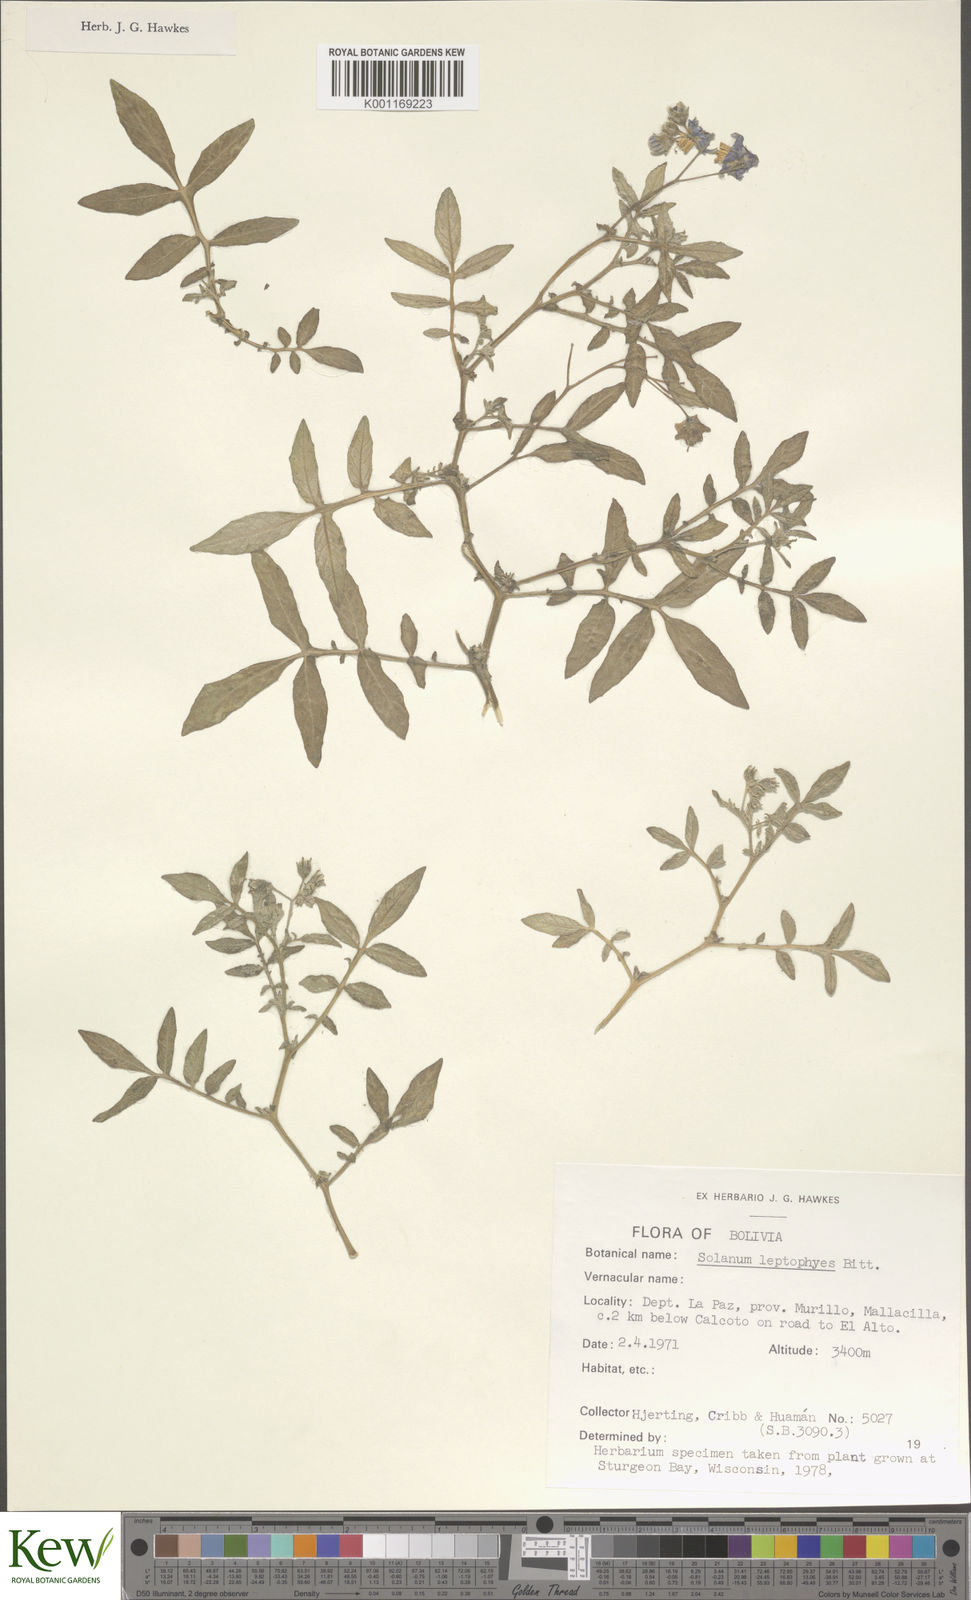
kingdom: Plantae
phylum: Tracheophyta
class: Magnoliopsida
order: Solanales
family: Solanaceae
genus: Solanum
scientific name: Solanum brevicaule
